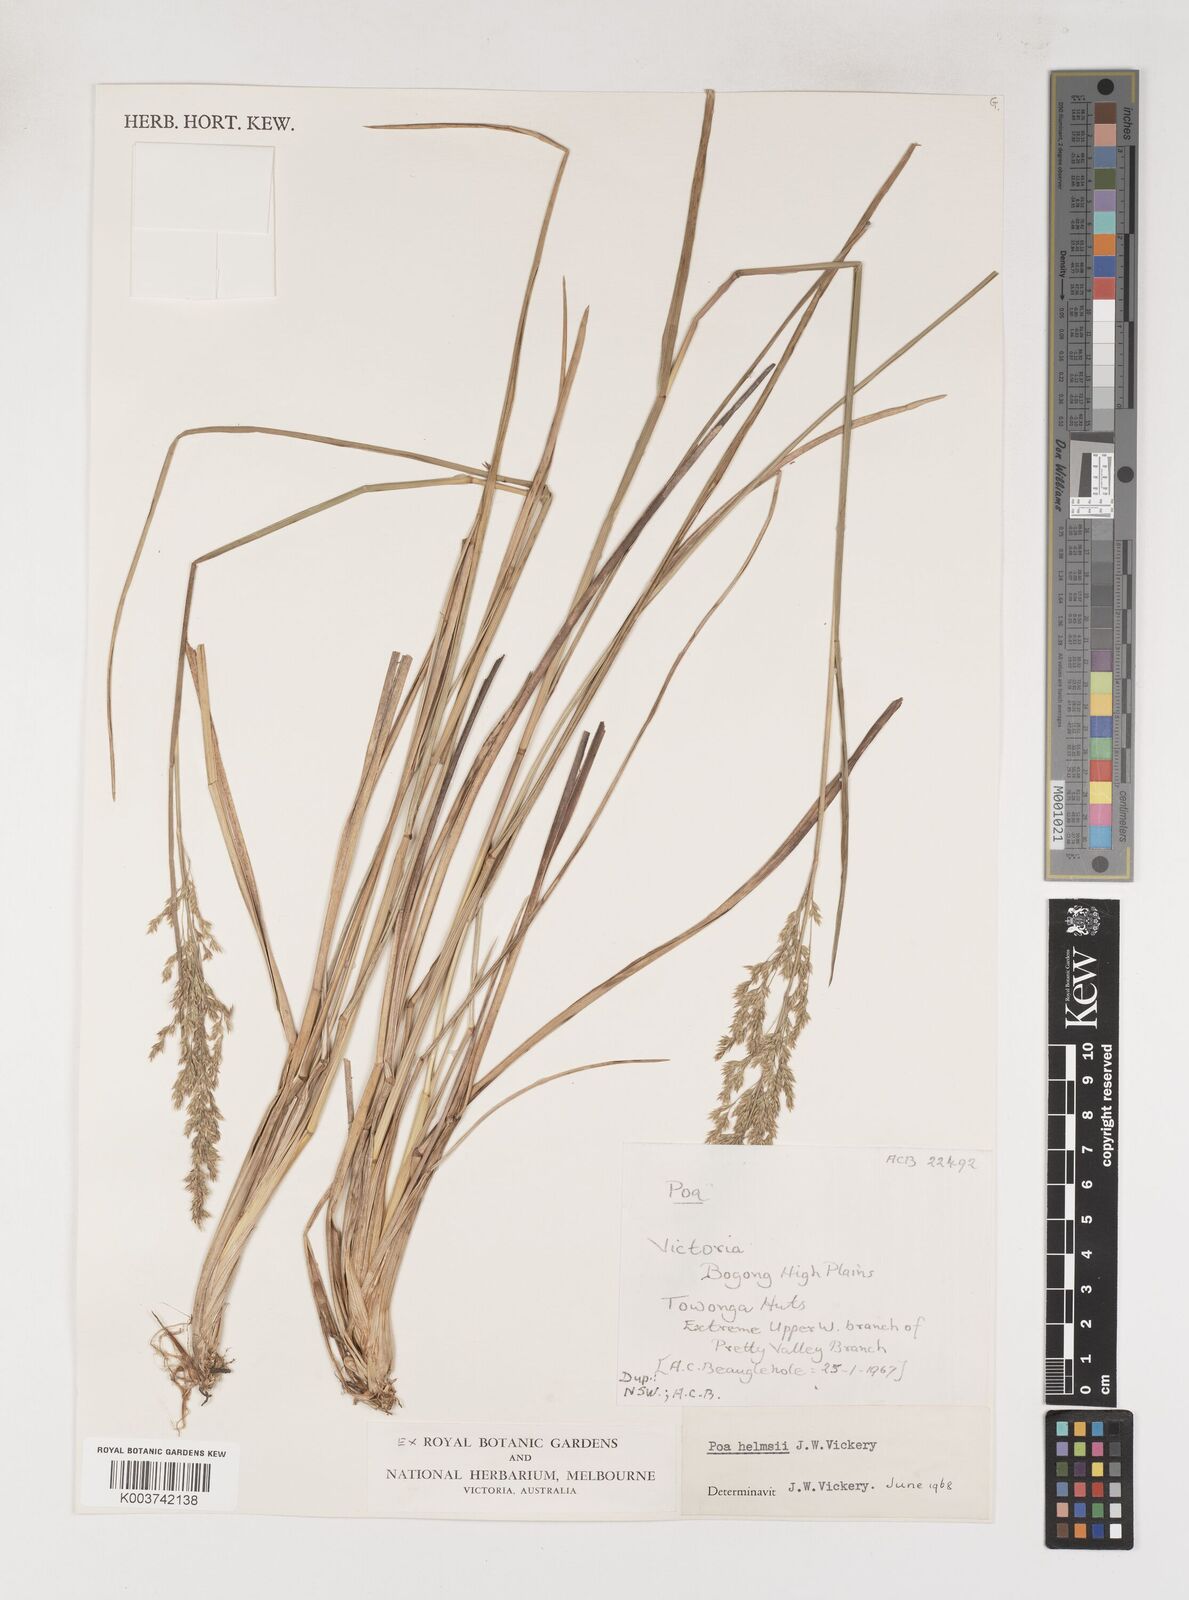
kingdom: Plantae
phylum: Tracheophyta
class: Liliopsida
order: Poales
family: Poaceae
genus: Poa
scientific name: Poa helmsii
